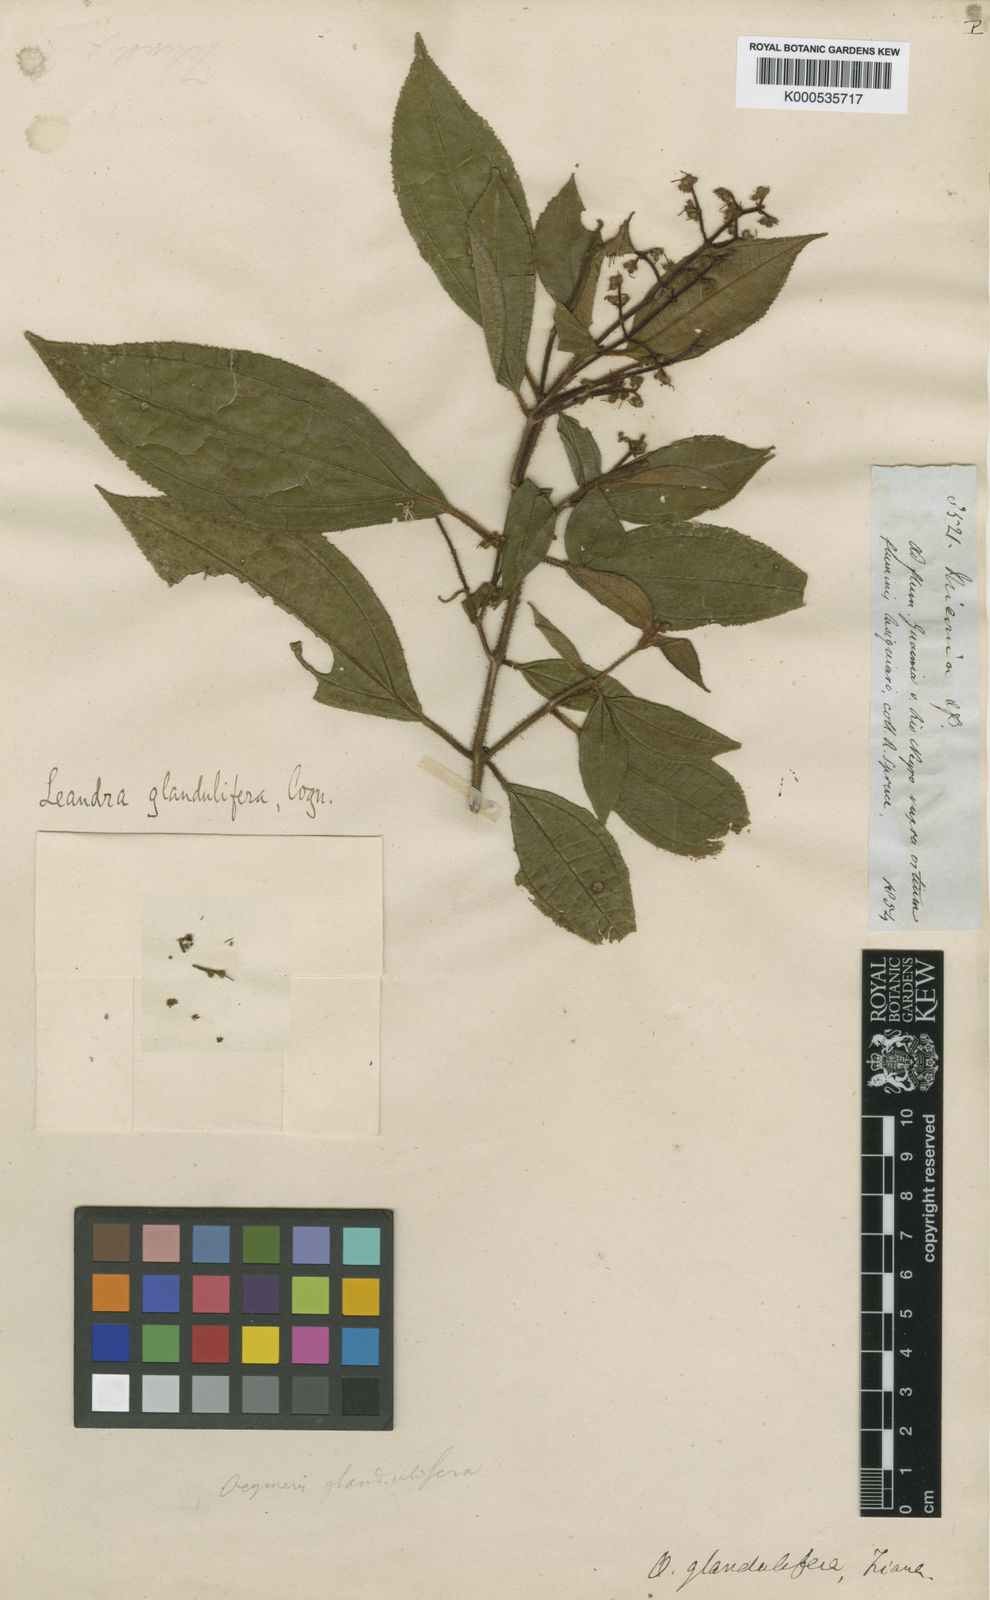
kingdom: Plantae
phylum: Tracheophyta
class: Magnoliopsida
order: Myrtales
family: Melastomataceae
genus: Miconia
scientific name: Miconia glanduliflora
